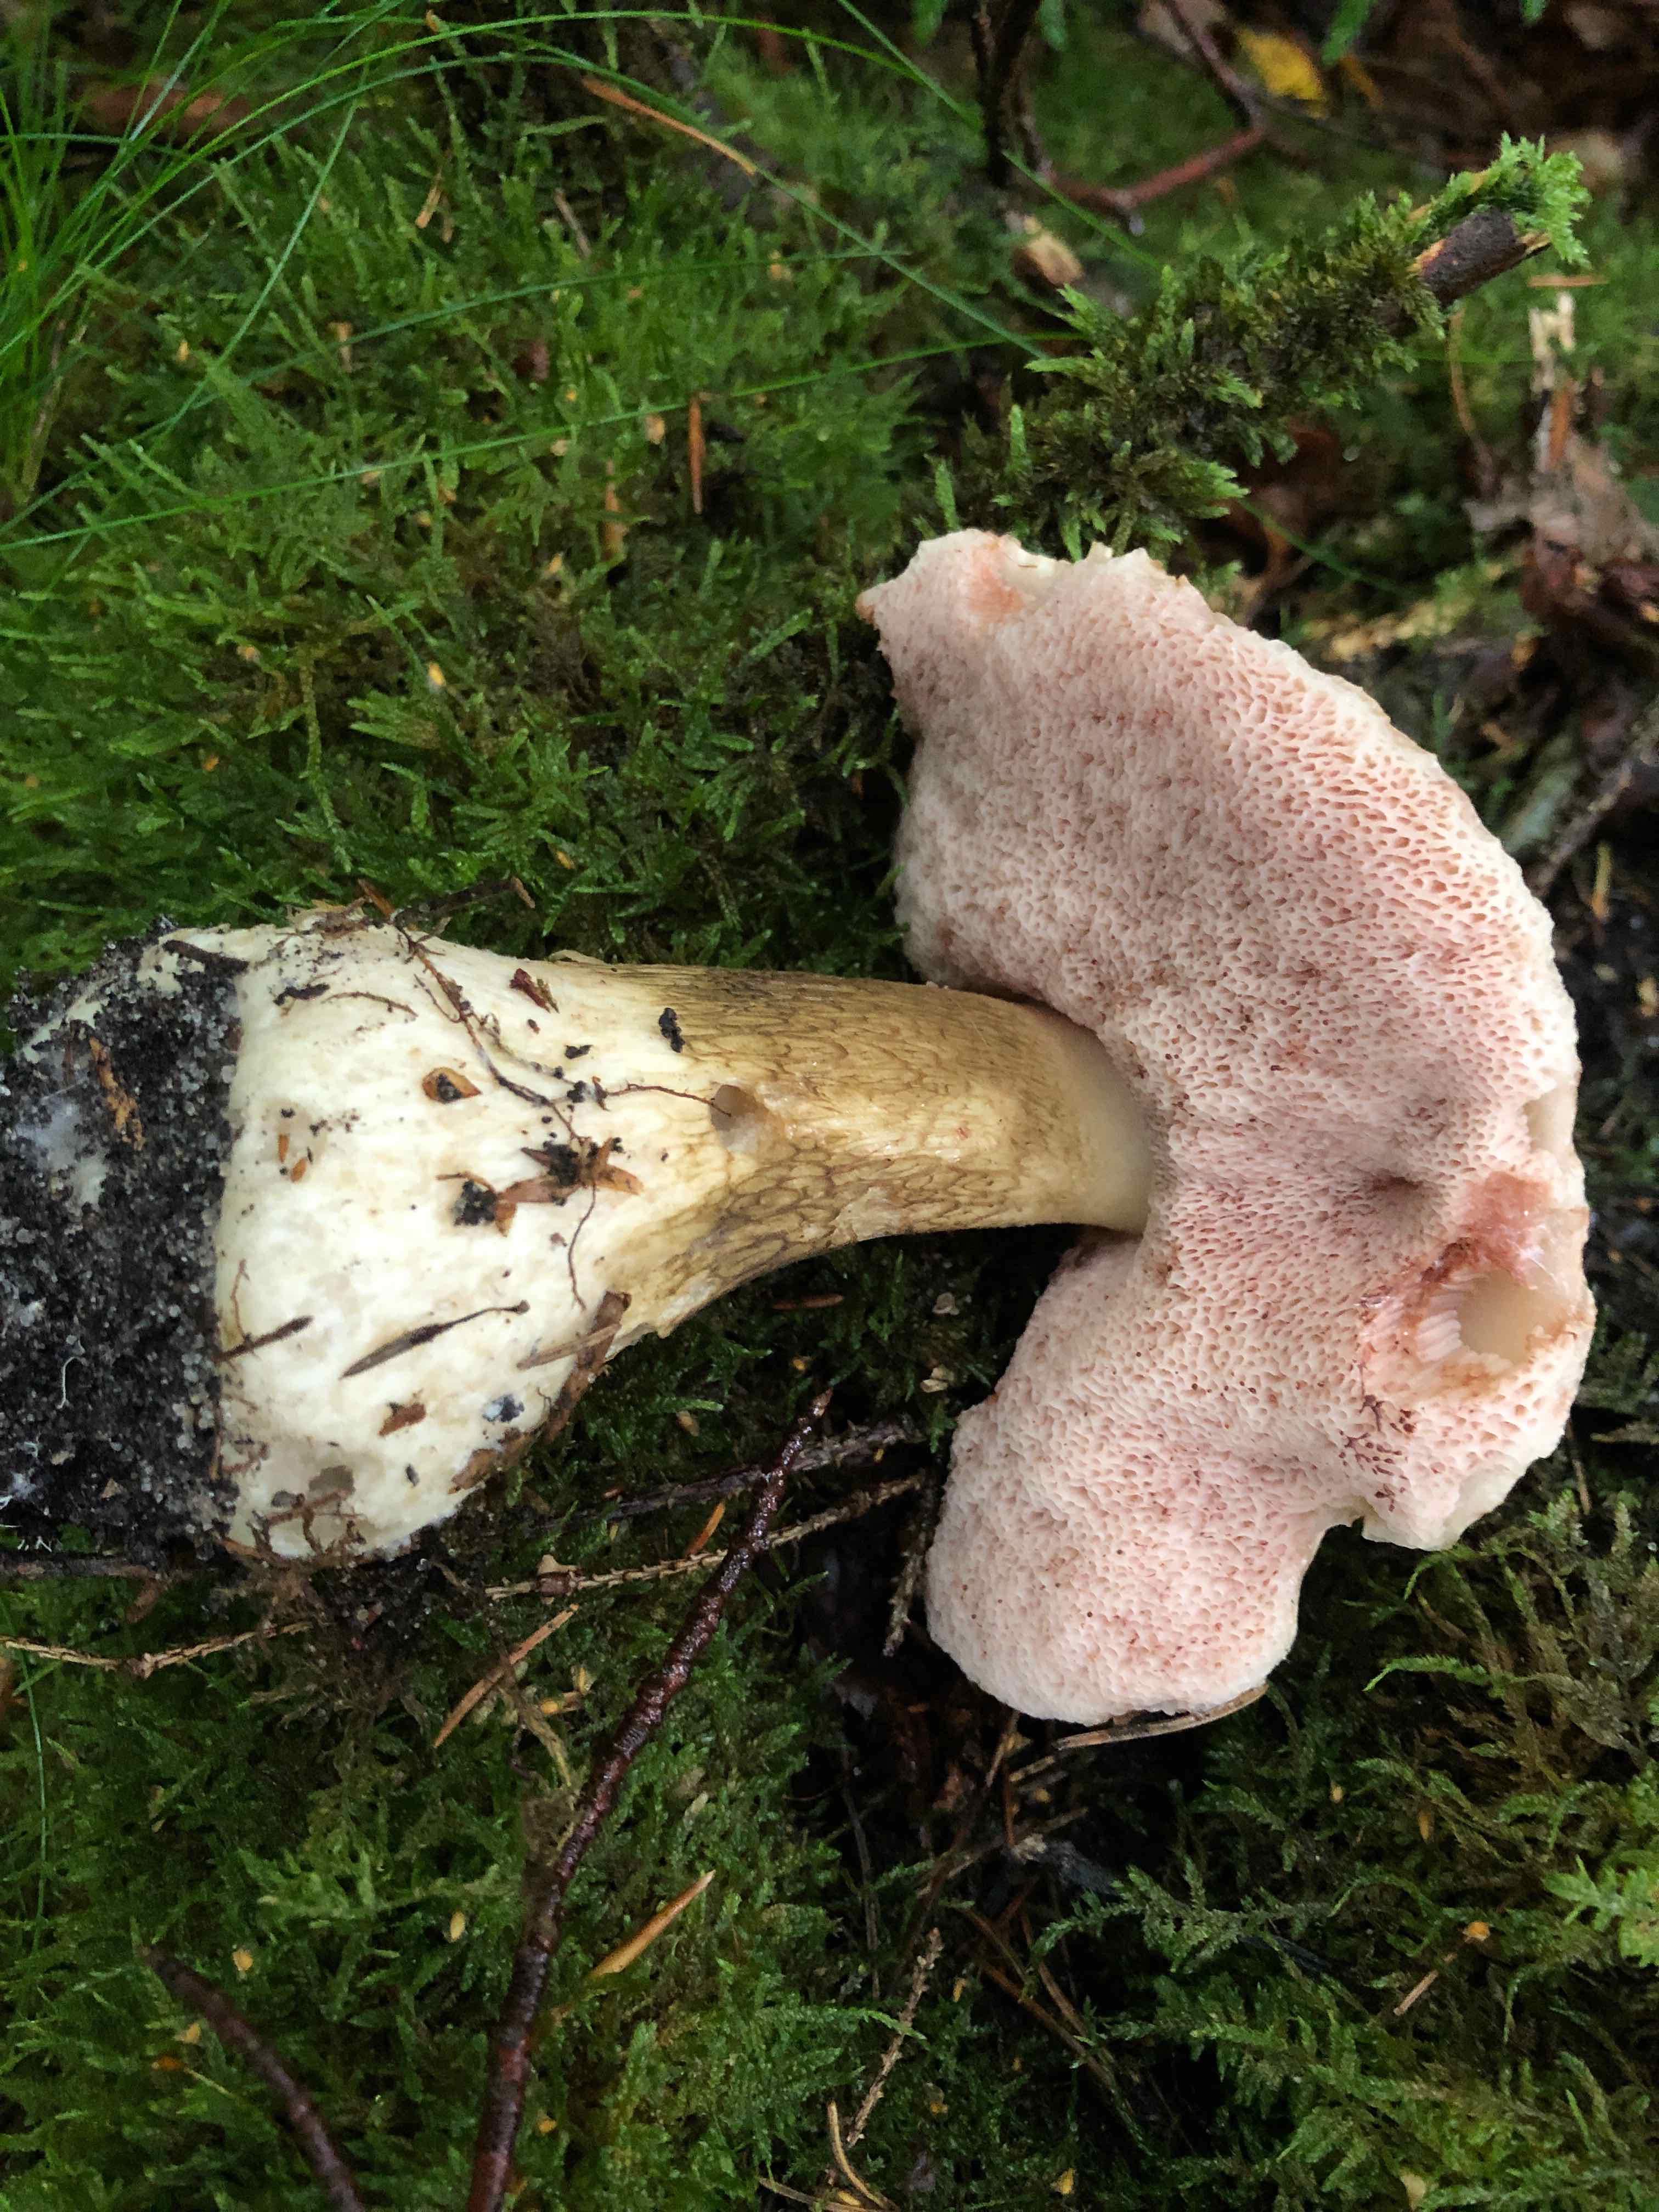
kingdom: Fungi
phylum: Basidiomycota
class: Agaricomycetes
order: Boletales
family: Boletaceae
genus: Tylopilus
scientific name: Tylopilus felleus
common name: galderørhat
